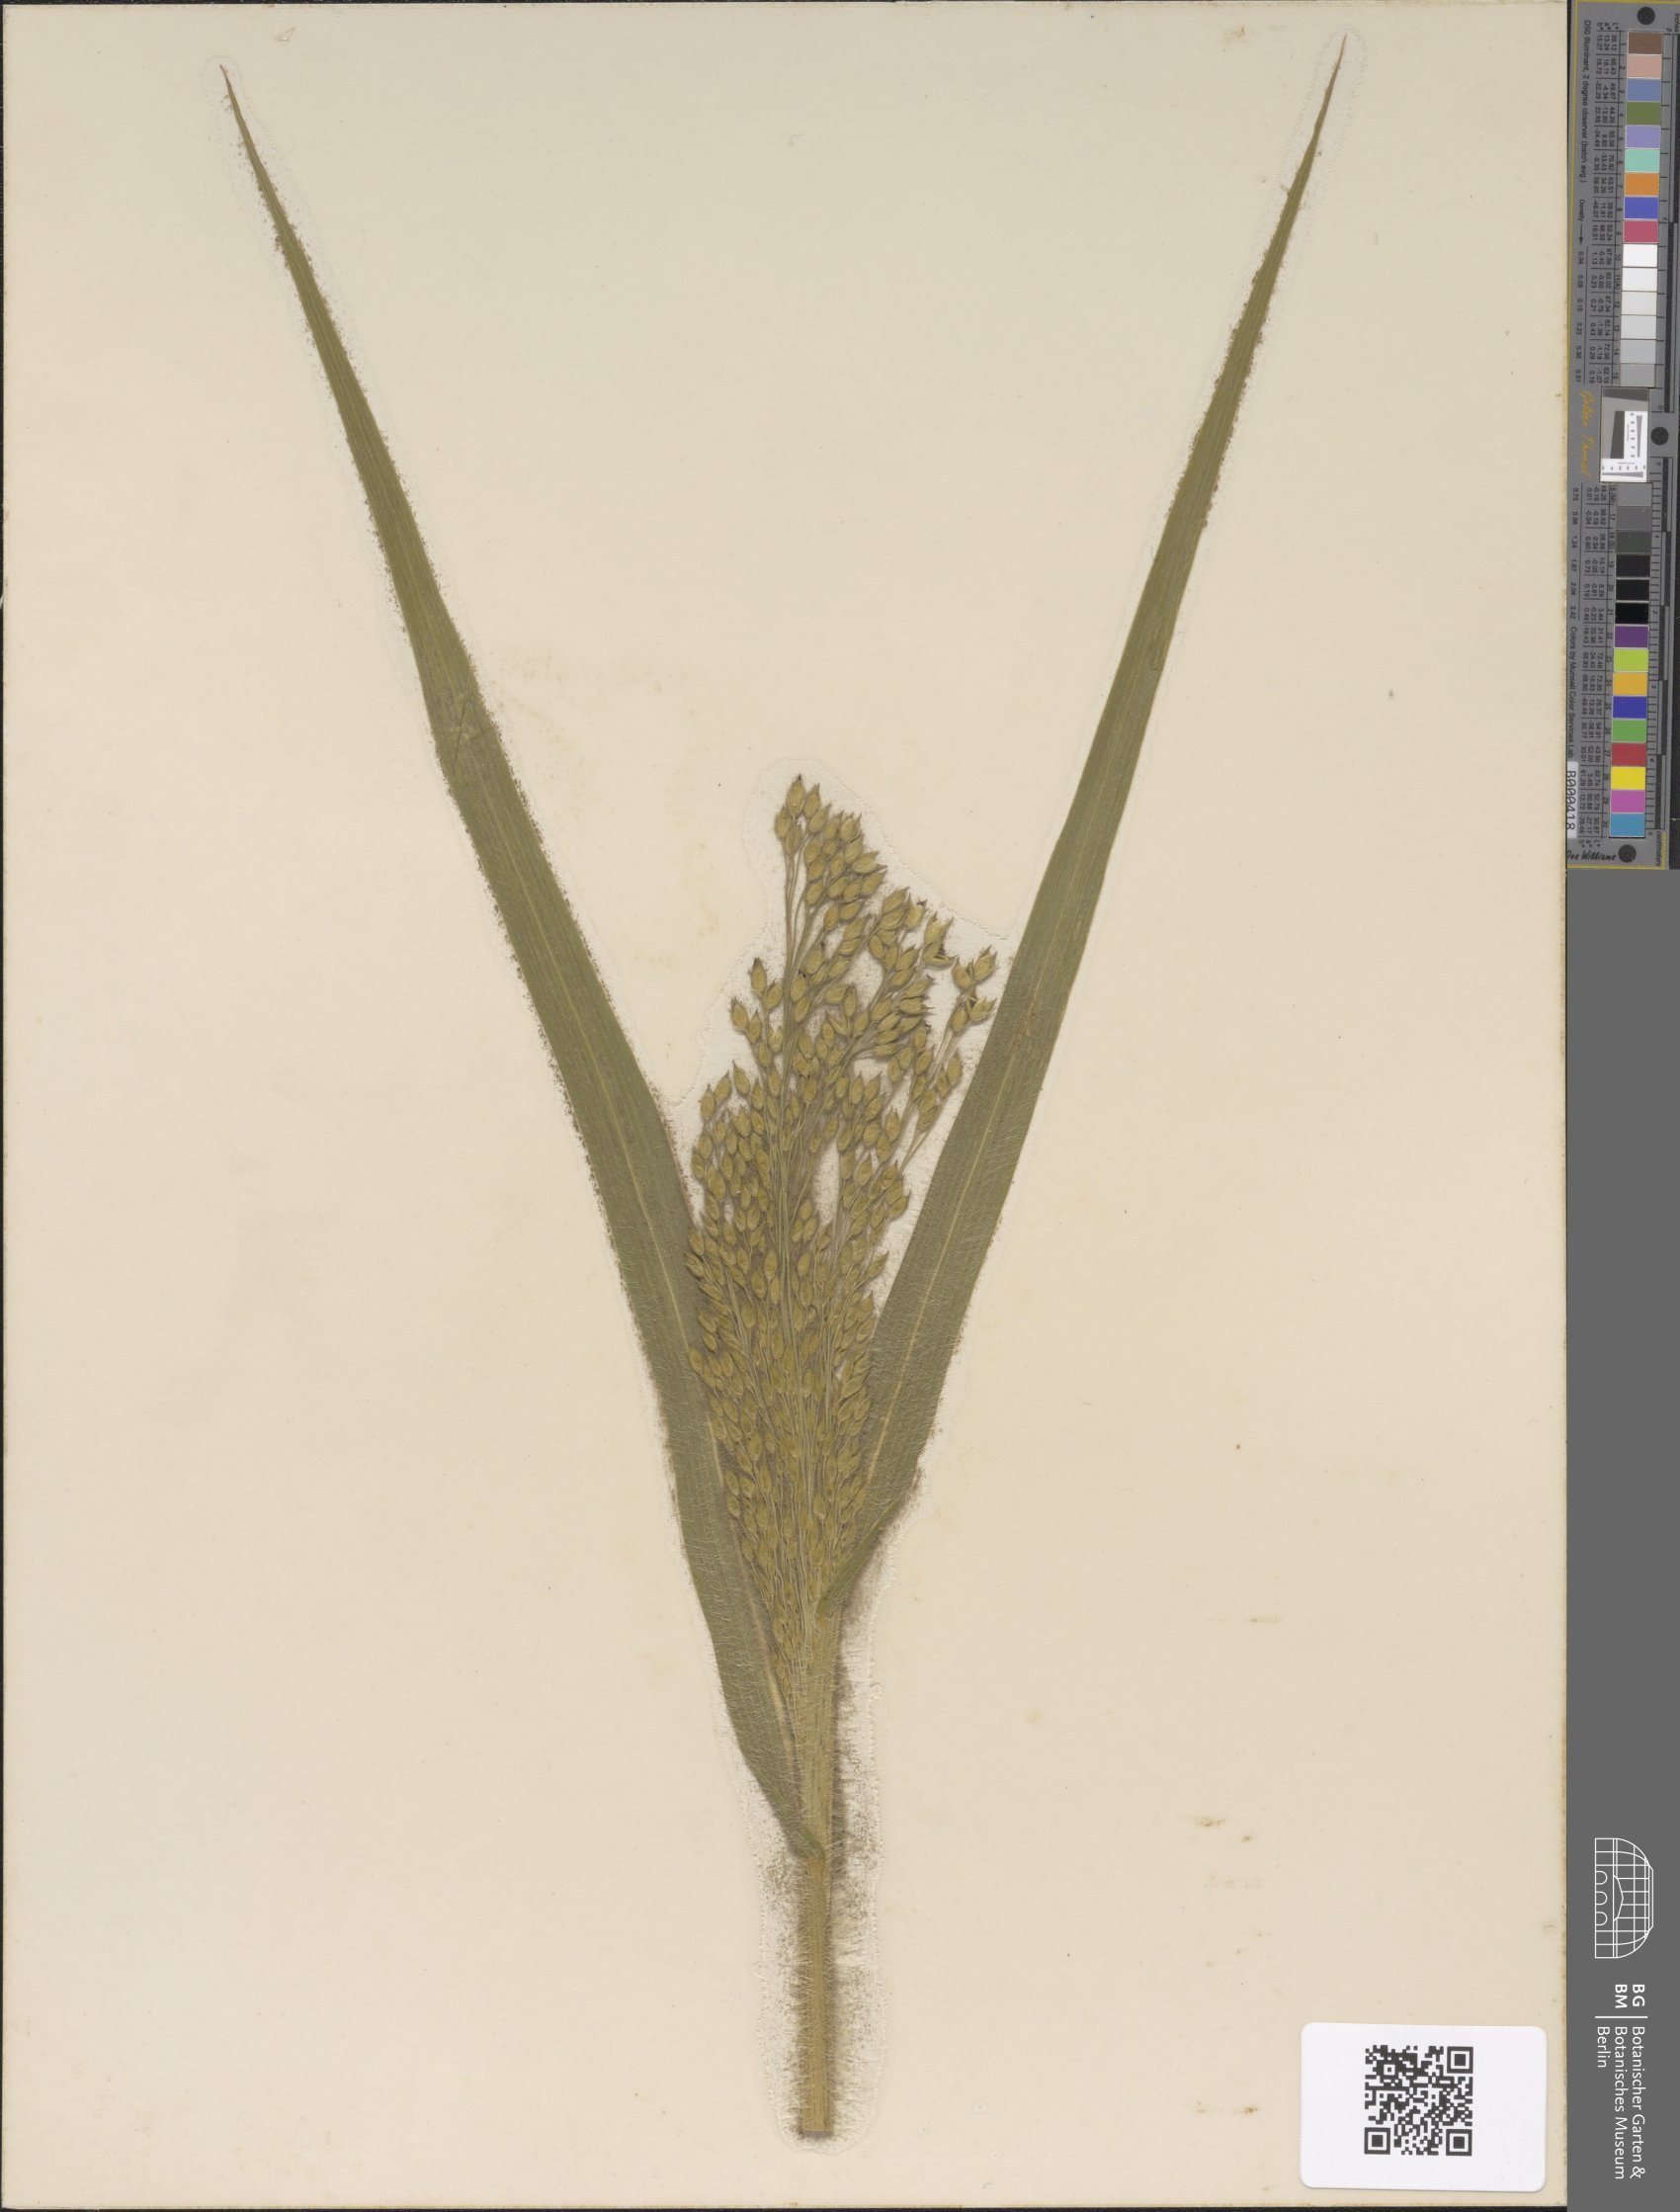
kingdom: Plantae
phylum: Tracheophyta
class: Liliopsida
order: Poales
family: Poaceae
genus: Bromus
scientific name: Bromus inermis
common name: Smooth brome
